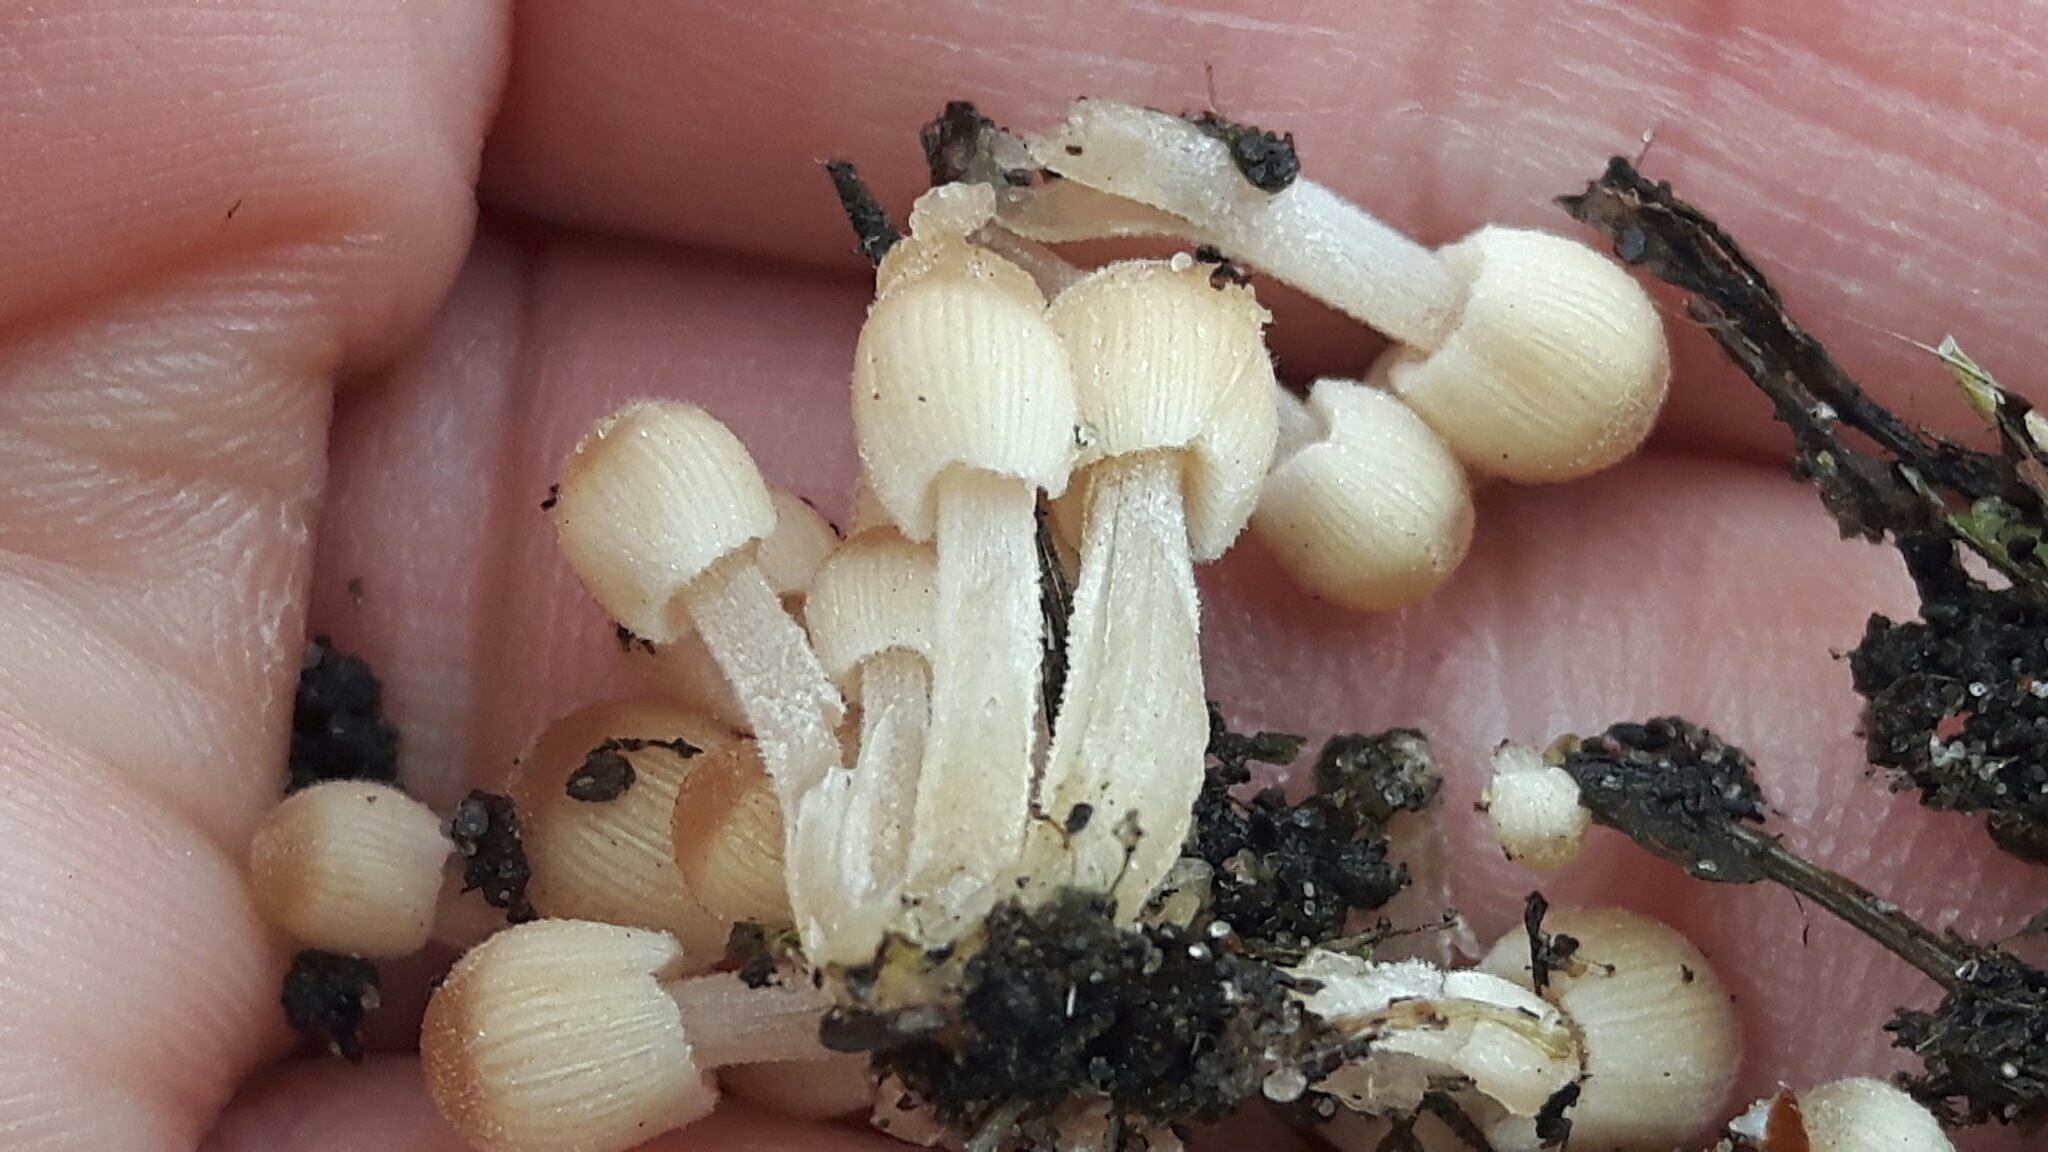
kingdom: Fungi
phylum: Basidiomycota
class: Agaricomycetes
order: Agaricales
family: Psathyrellaceae
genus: Coprinellus
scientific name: Coprinellus disseminatus
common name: bredsået blækhat
